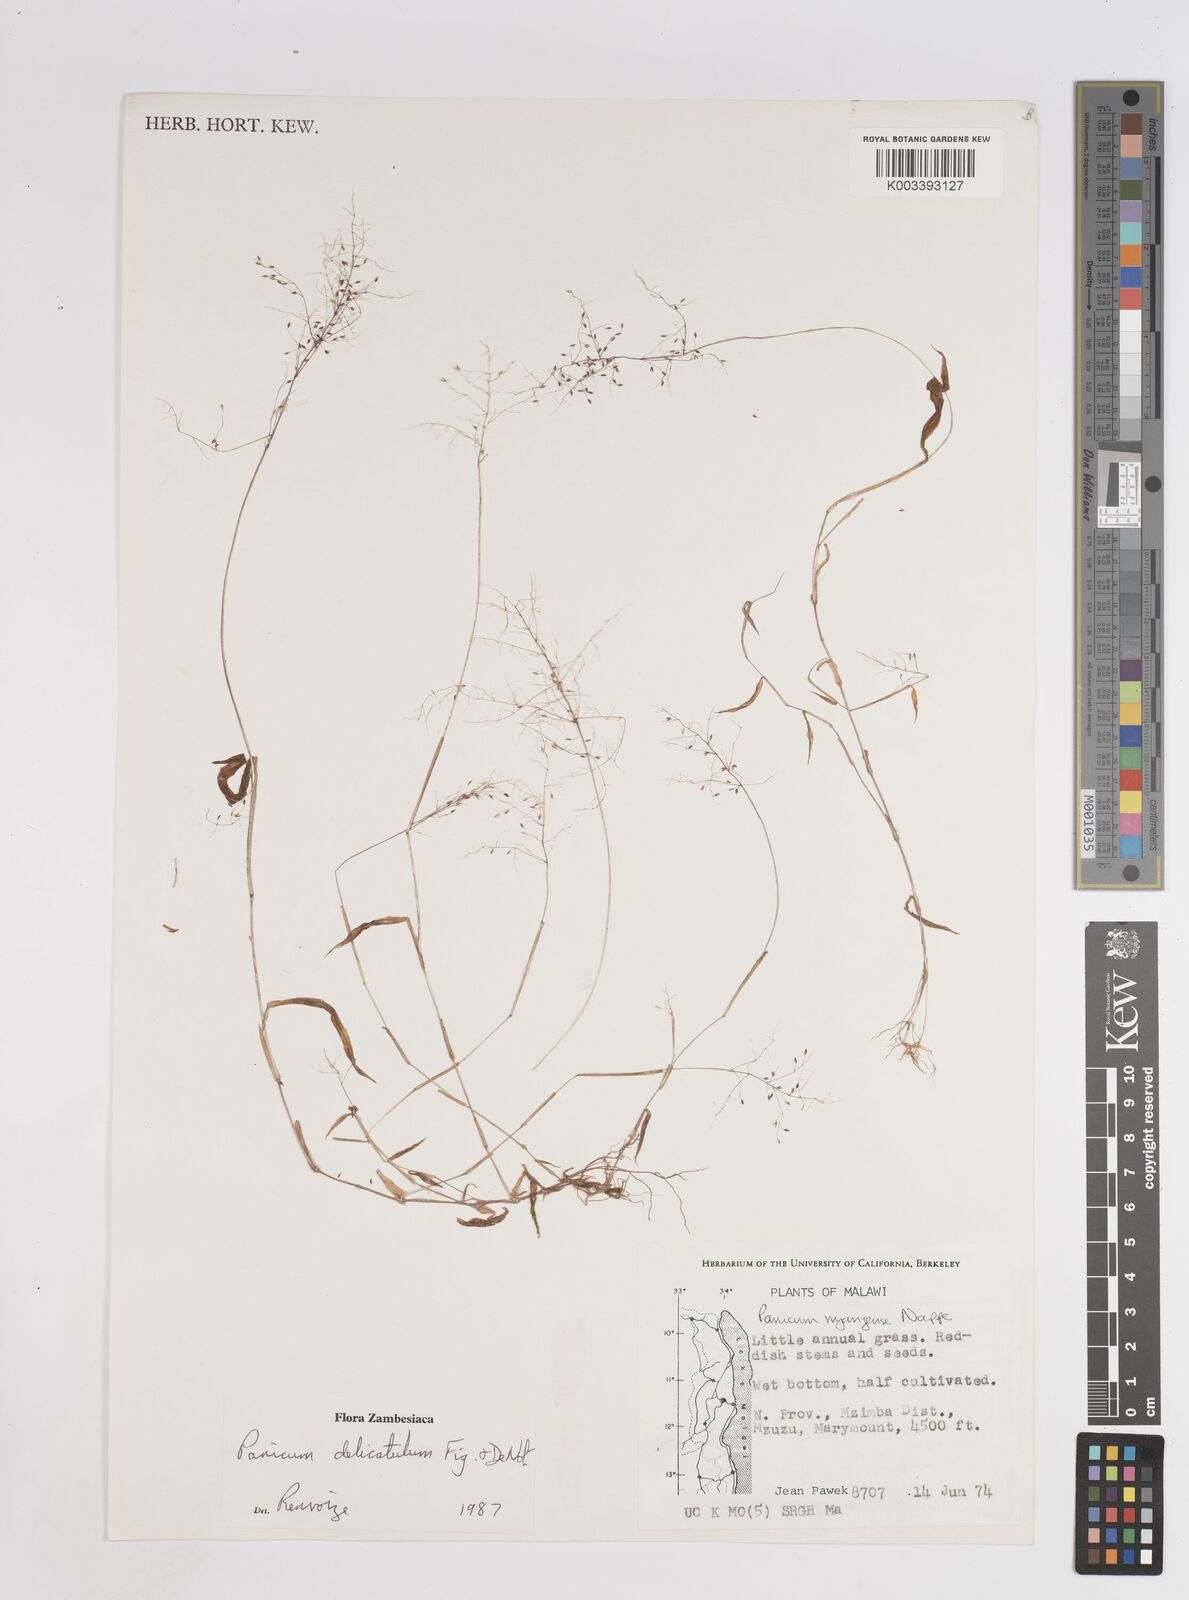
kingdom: Plantae
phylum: Tracheophyta
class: Liliopsida
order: Poales
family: Poaceae
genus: Panicum
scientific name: Panicum delicatulum
